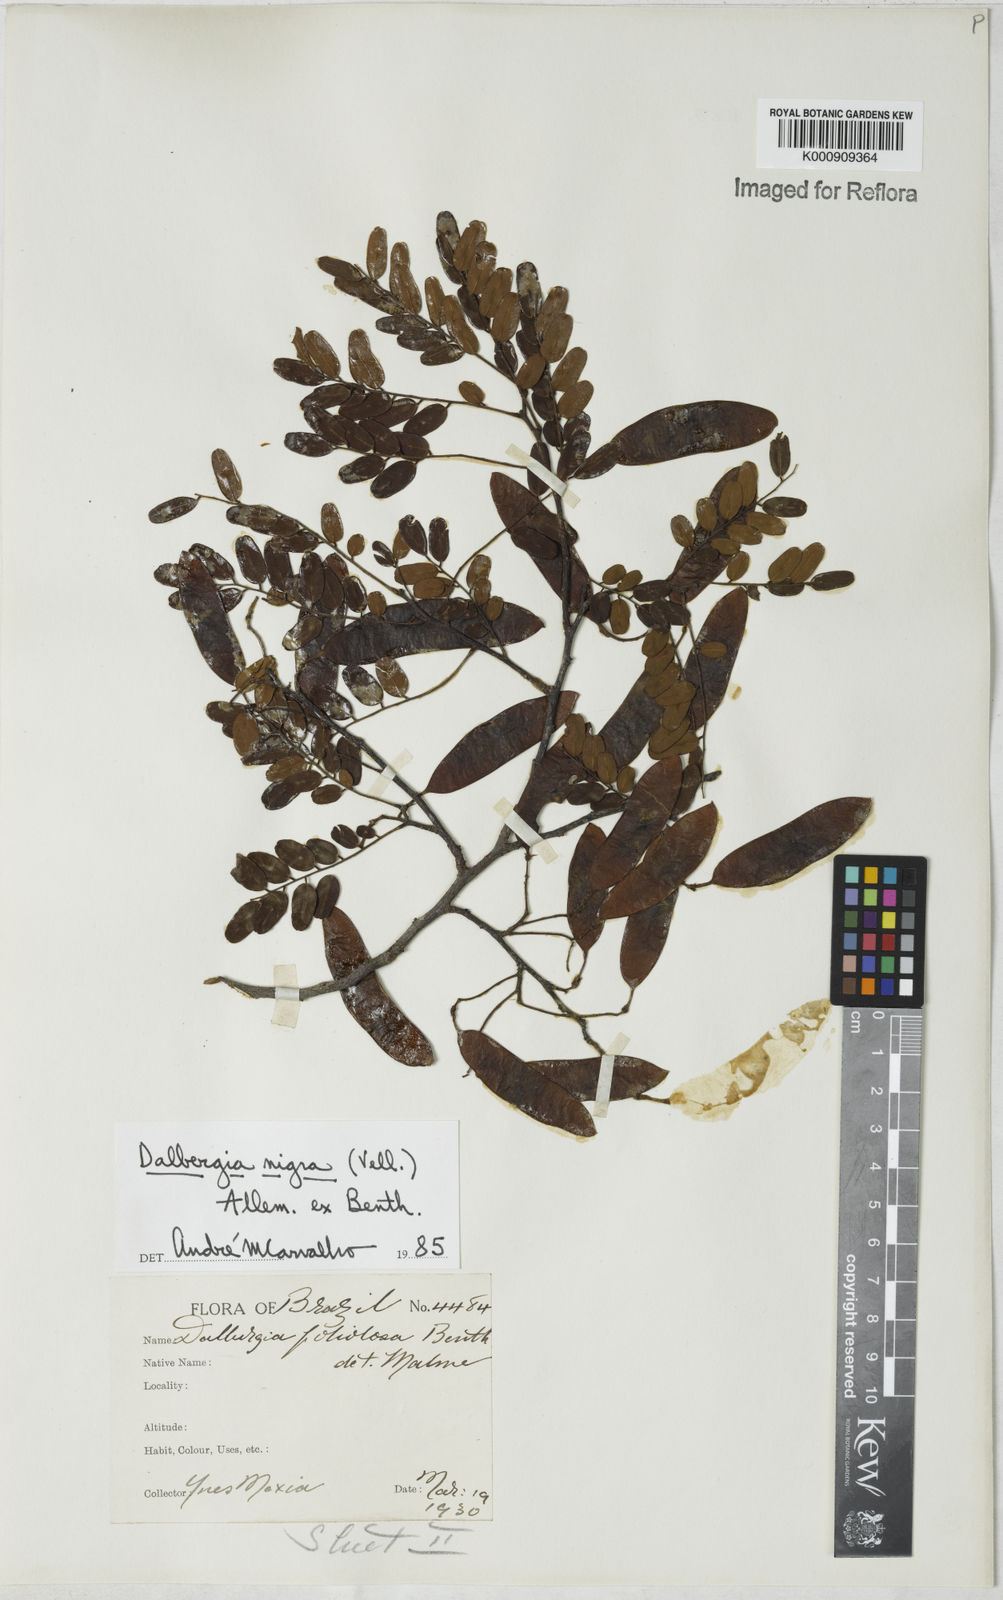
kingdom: Plantae
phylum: Tracheophyta
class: Magnoliopsida
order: Fabales
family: Fabaceae
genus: Dalbergia
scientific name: Dalbergia
